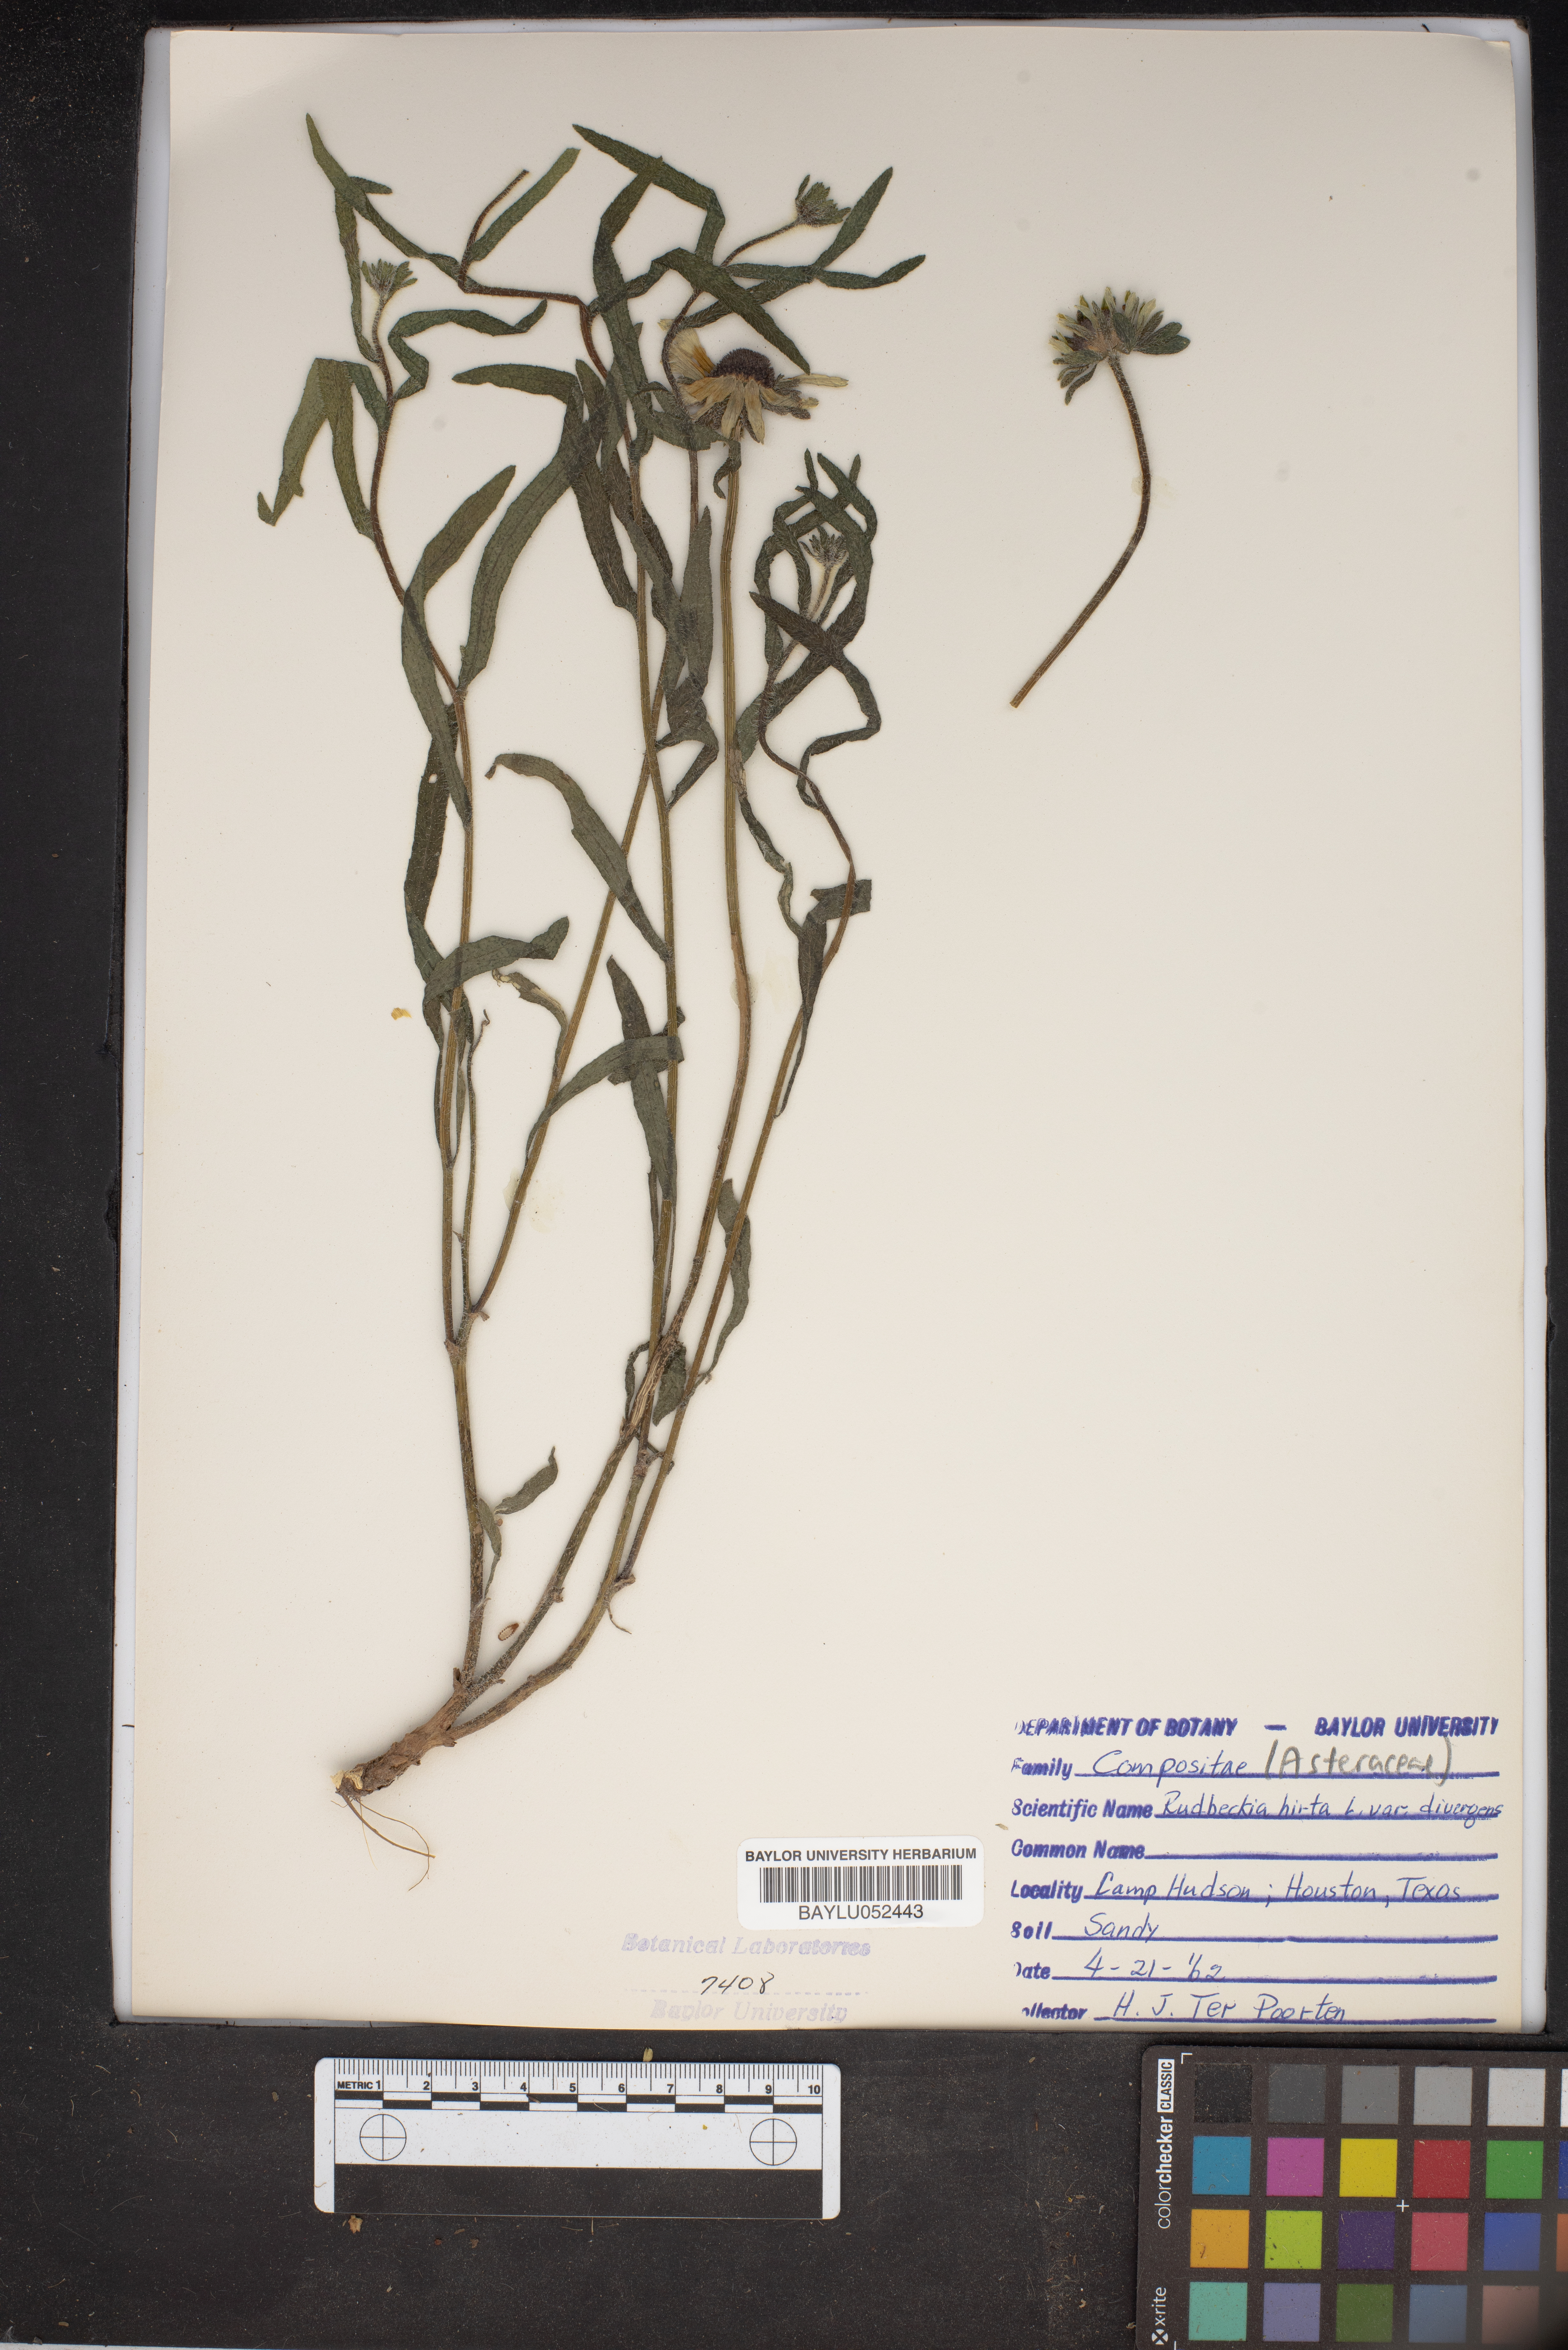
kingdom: Plantae
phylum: Tracheophyta
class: Magnoliopsida
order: Asterales
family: Asteraceae
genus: Rudbeckia
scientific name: Rudbeckia hirta
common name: Black-eyed-susan
